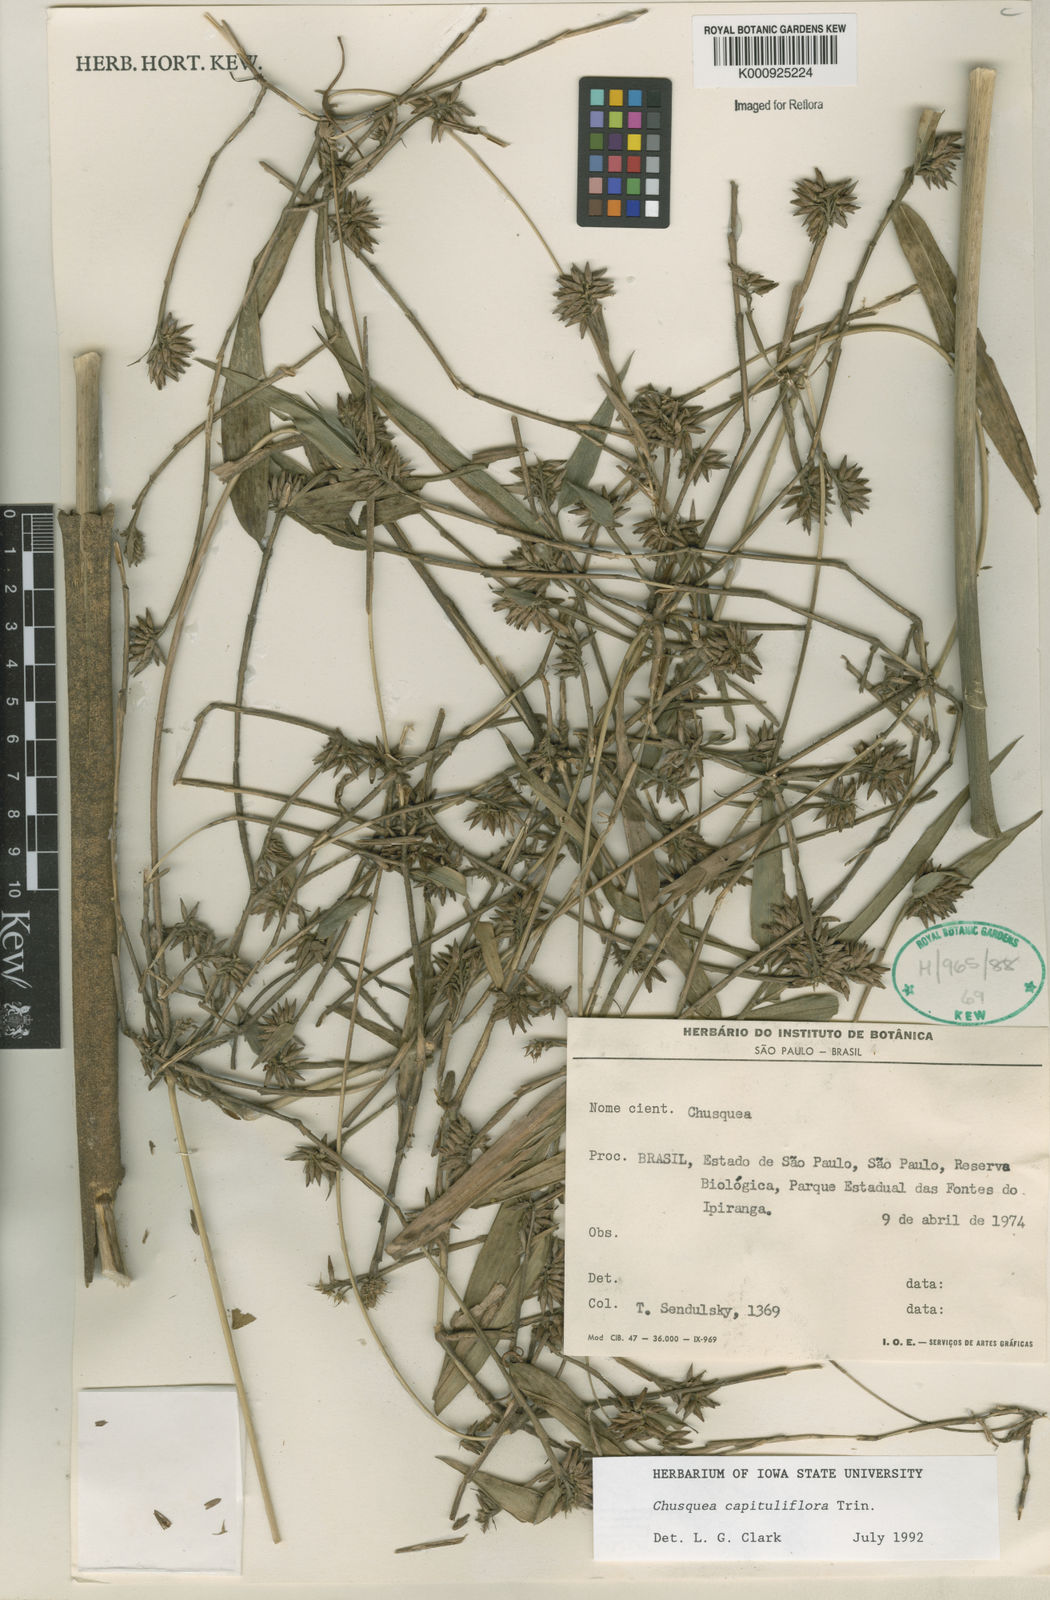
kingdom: Plantae
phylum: Tracheophyta
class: Liliopsida
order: Poales
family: Poaceae
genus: Chusquea
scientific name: Chusquea
